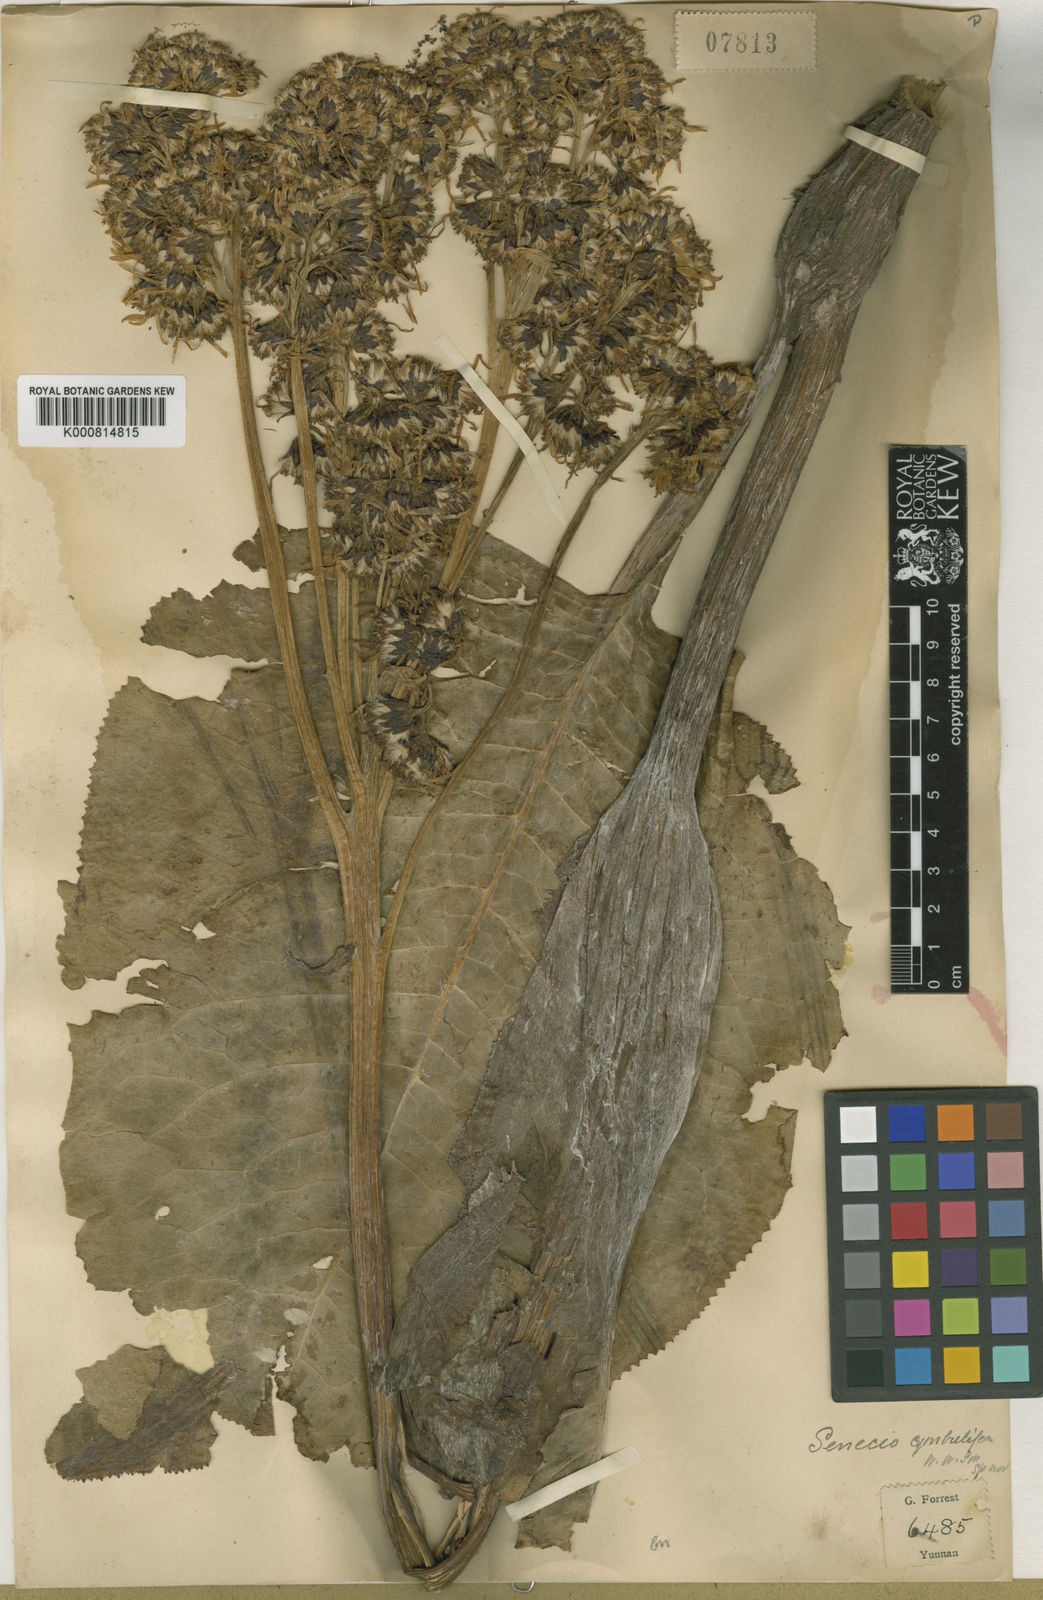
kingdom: Plantae
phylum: Tracheophyta
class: Magnoliopsida
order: Asterales
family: Asteraceae
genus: Ligularia
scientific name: Ligularia cymbulifera
